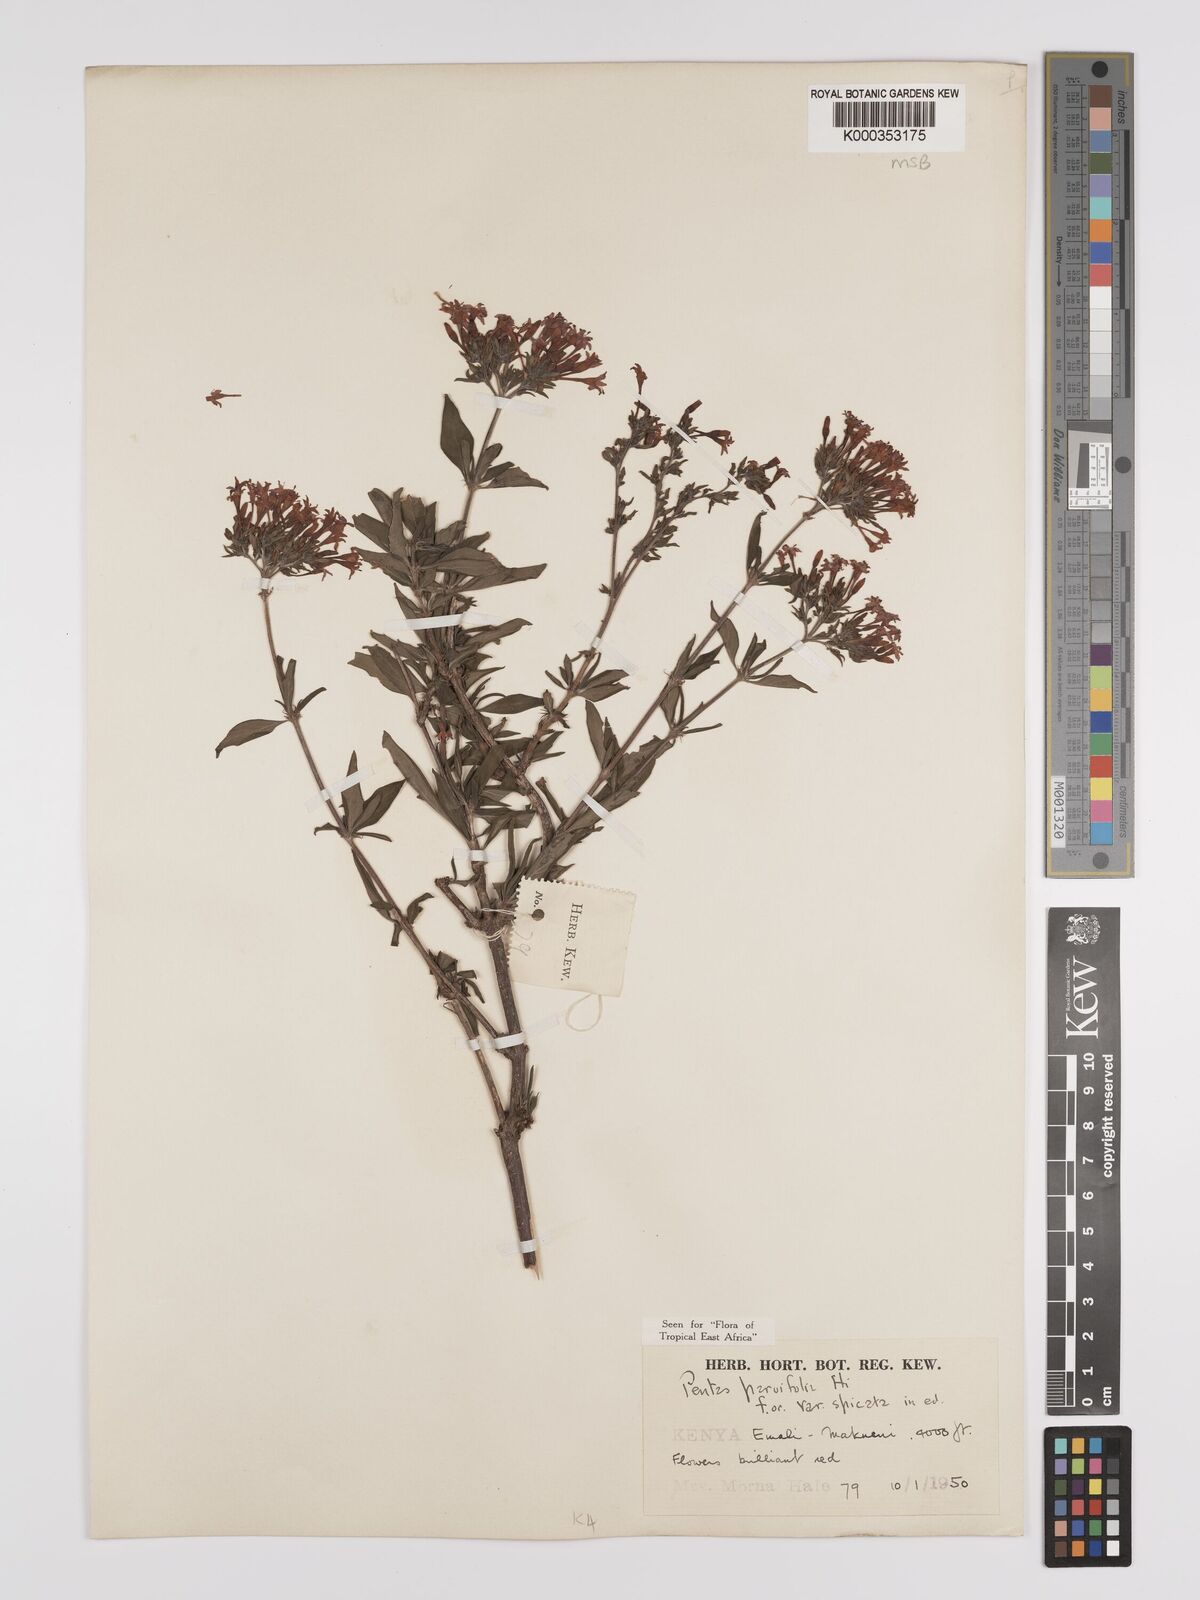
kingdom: Plantae
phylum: Tracheophyta
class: Magnoliopsida
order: Gentianales
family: Rubiaceae
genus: Rhodopentas
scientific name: Rhodopentas parvifolia
